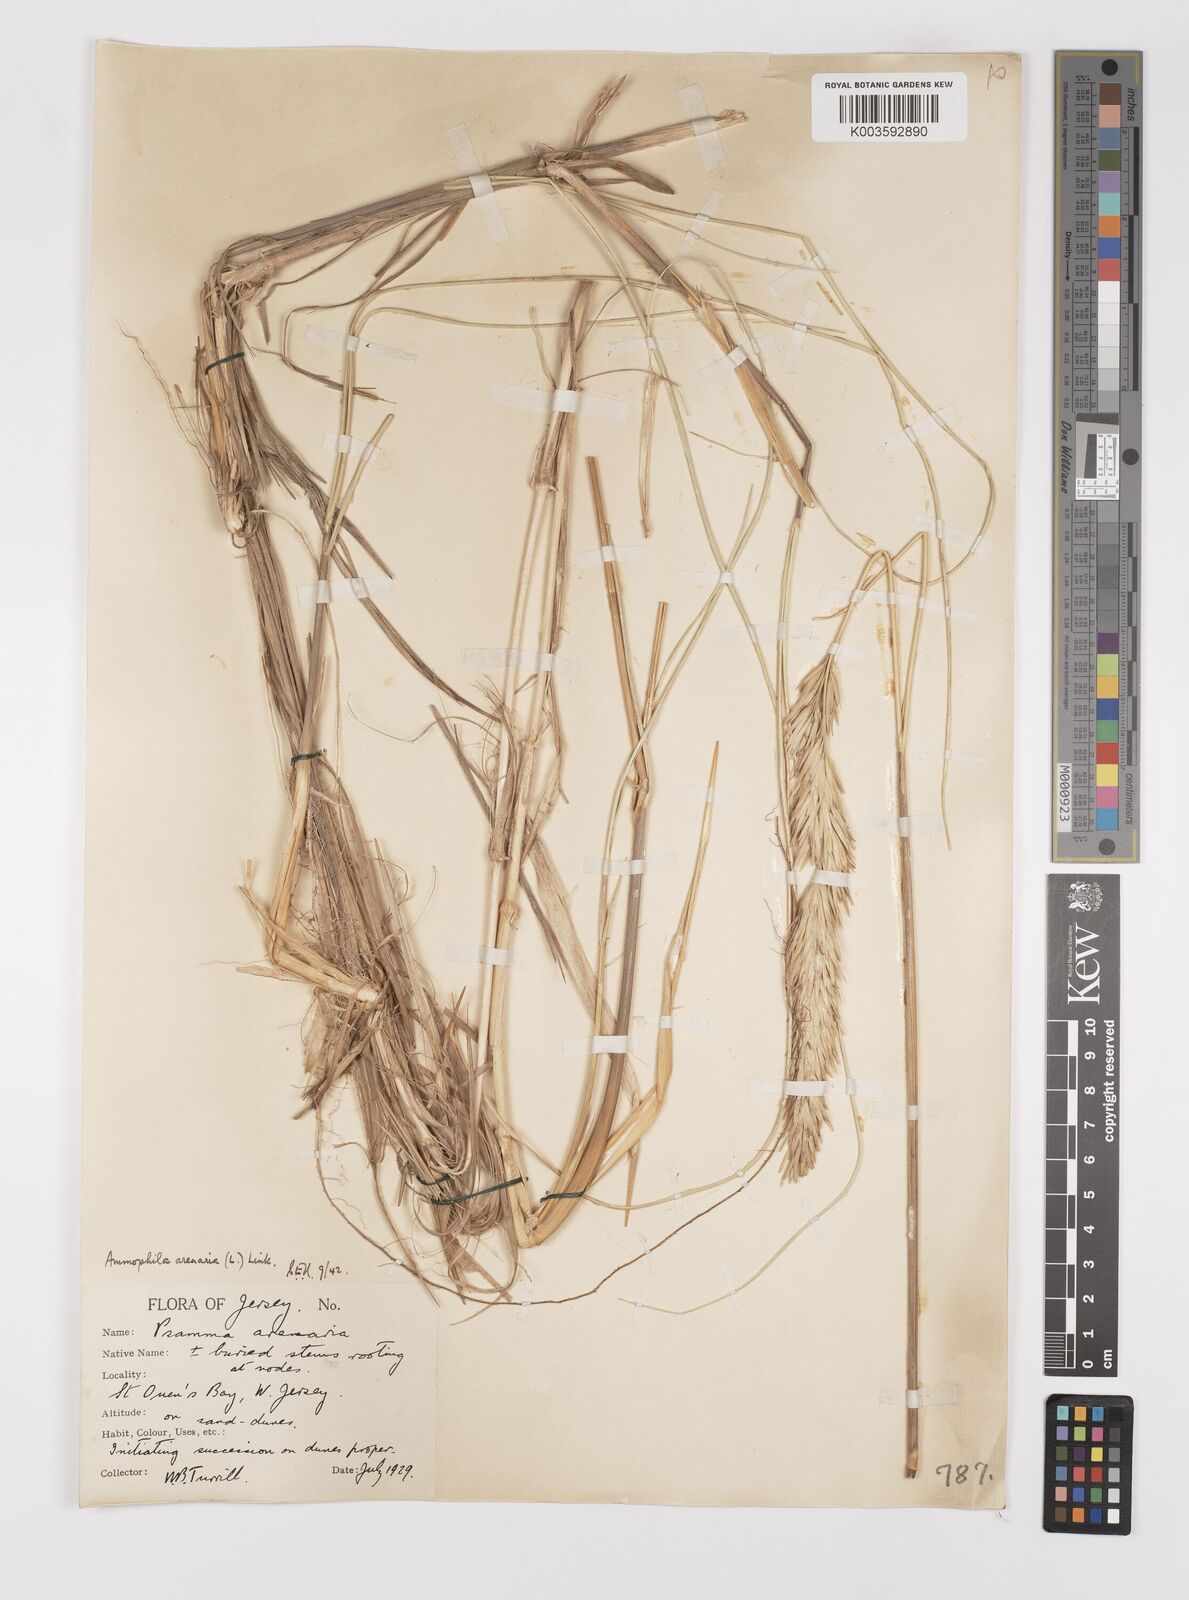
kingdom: Plantae
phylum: Tracheophyta
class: Liliopsida
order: Poales
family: Poaceae
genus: Calamagrostis
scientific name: Calamagrostis arenaria
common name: European beachgrass
